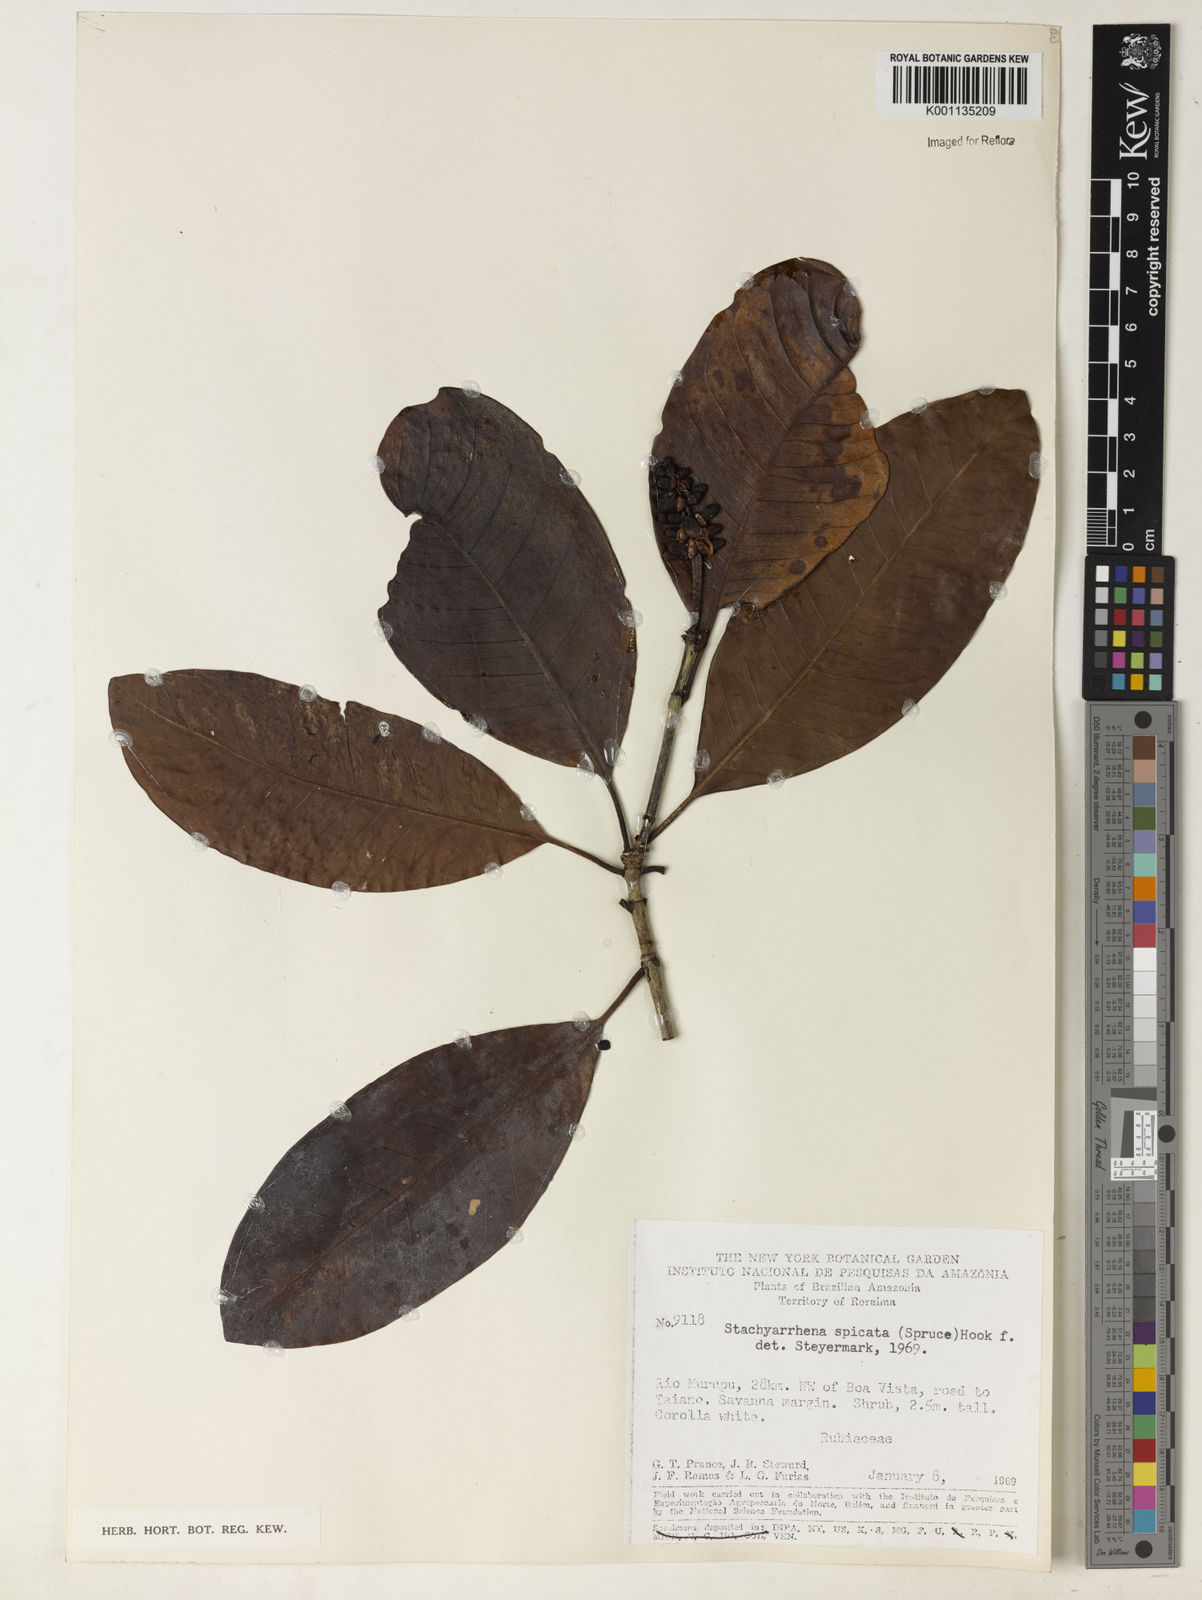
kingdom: Plantae
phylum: Tracheophyta
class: Magnoliopsida
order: Gentianales
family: Rubiaceae
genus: Stachyarrhena
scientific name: Stachyarrhena spicata
